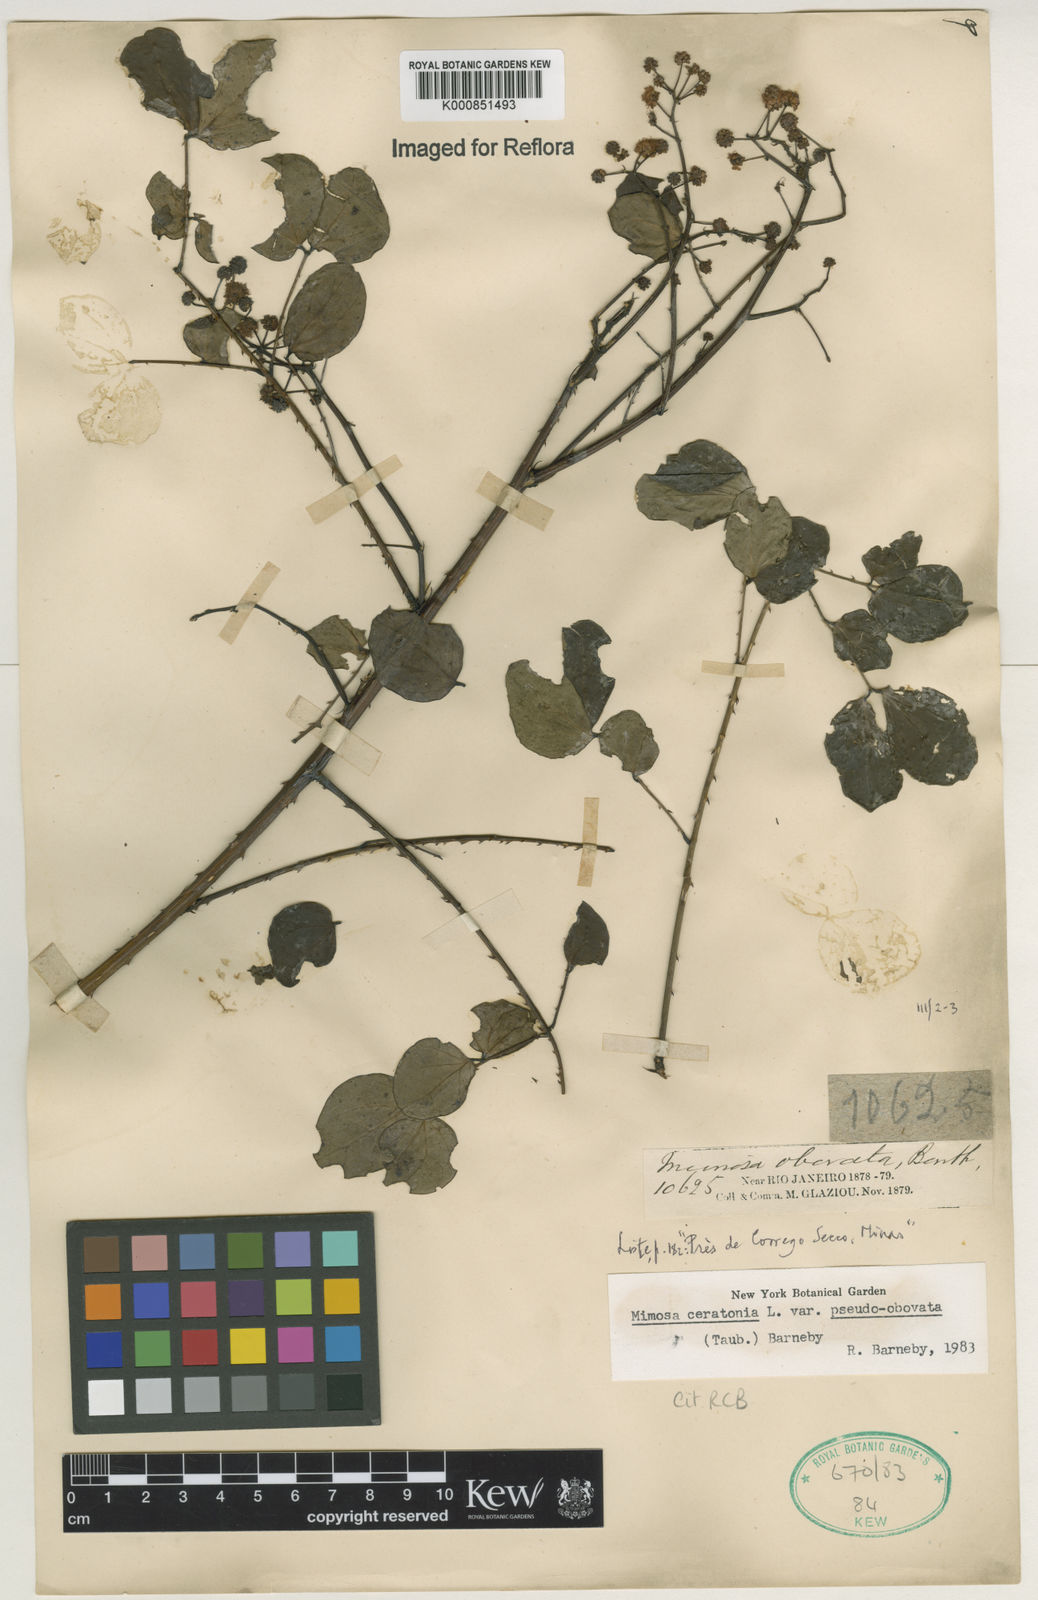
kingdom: Plantae
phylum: Tracheophyta
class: Magnoliopsida
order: Fabales
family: Fabaceae
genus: Mimosa
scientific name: Mimosa ceratonia
